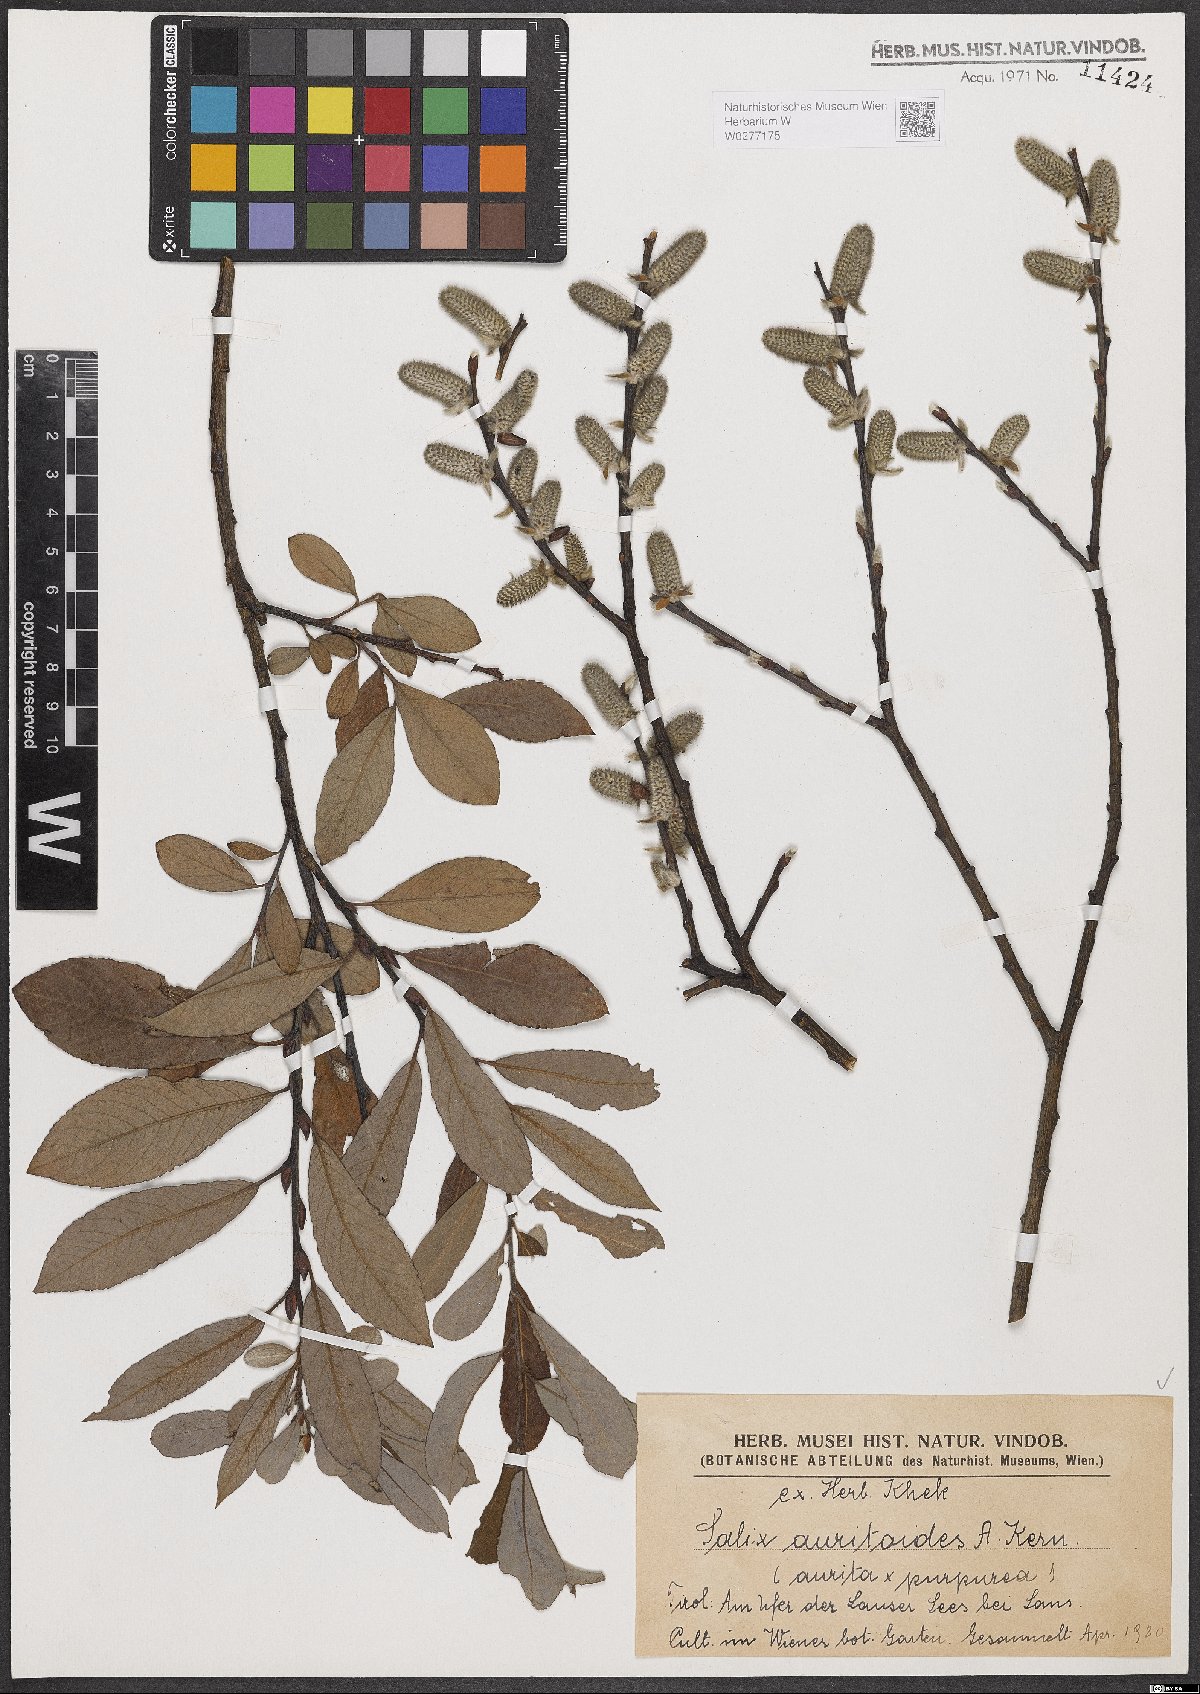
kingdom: Plantae
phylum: Tracheophyta
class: Magnoliopsida
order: Malpighiales
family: Salicaceae
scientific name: Salicaceae
